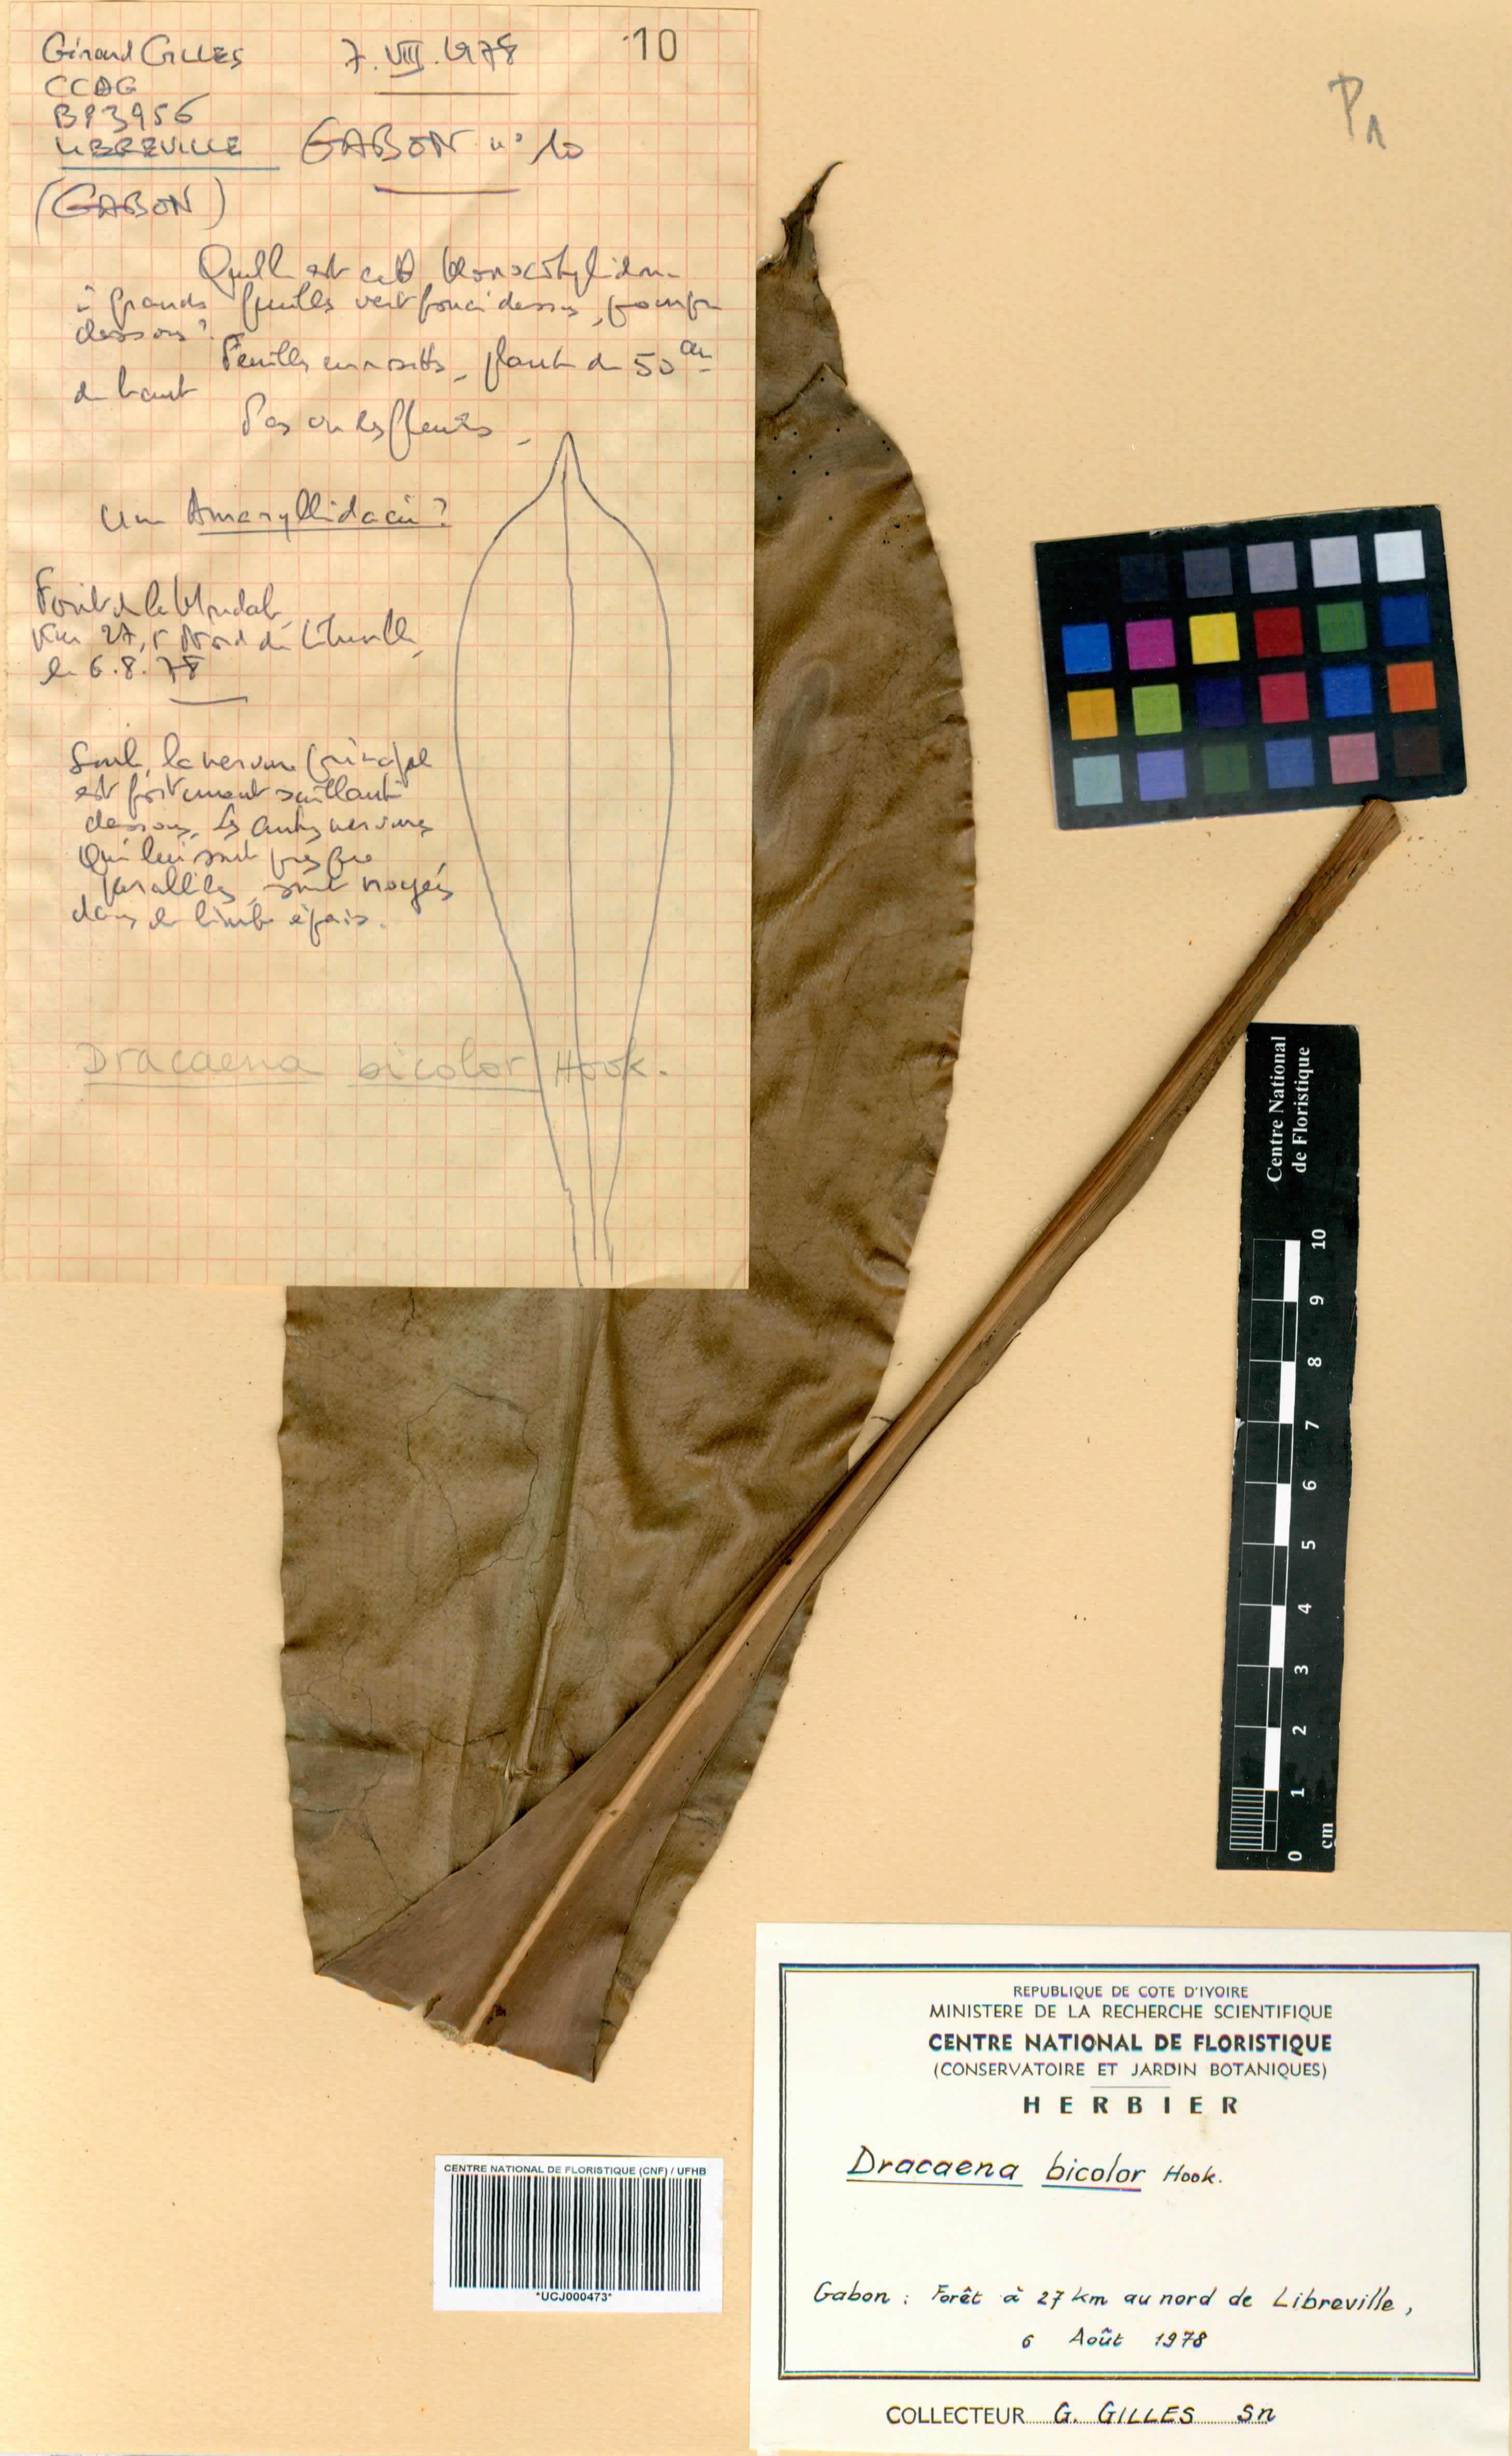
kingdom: Plantae
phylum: Tracheophyta
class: Liliopsida
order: Asparagales
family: Asparagaceae
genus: Dracaena
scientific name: Dracaena bicolor
